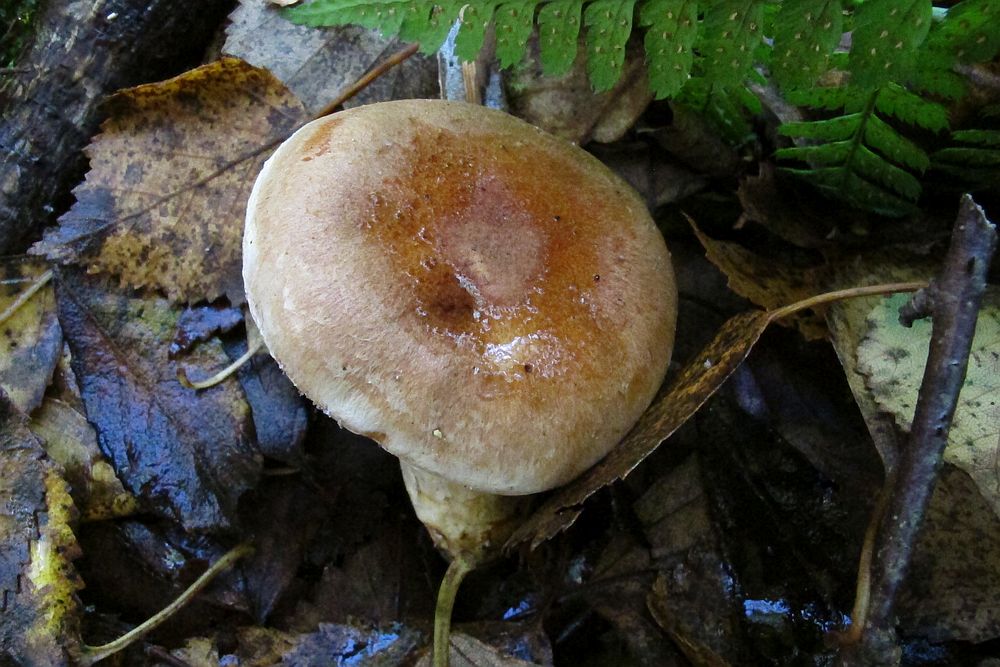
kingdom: Fungi
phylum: Basidiomycota
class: Agaricomycetes
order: Agaricales
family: Cortinariaceae
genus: Phlegmacium
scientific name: Phlegmacium vulpinum
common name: ringbæltet slørhat
